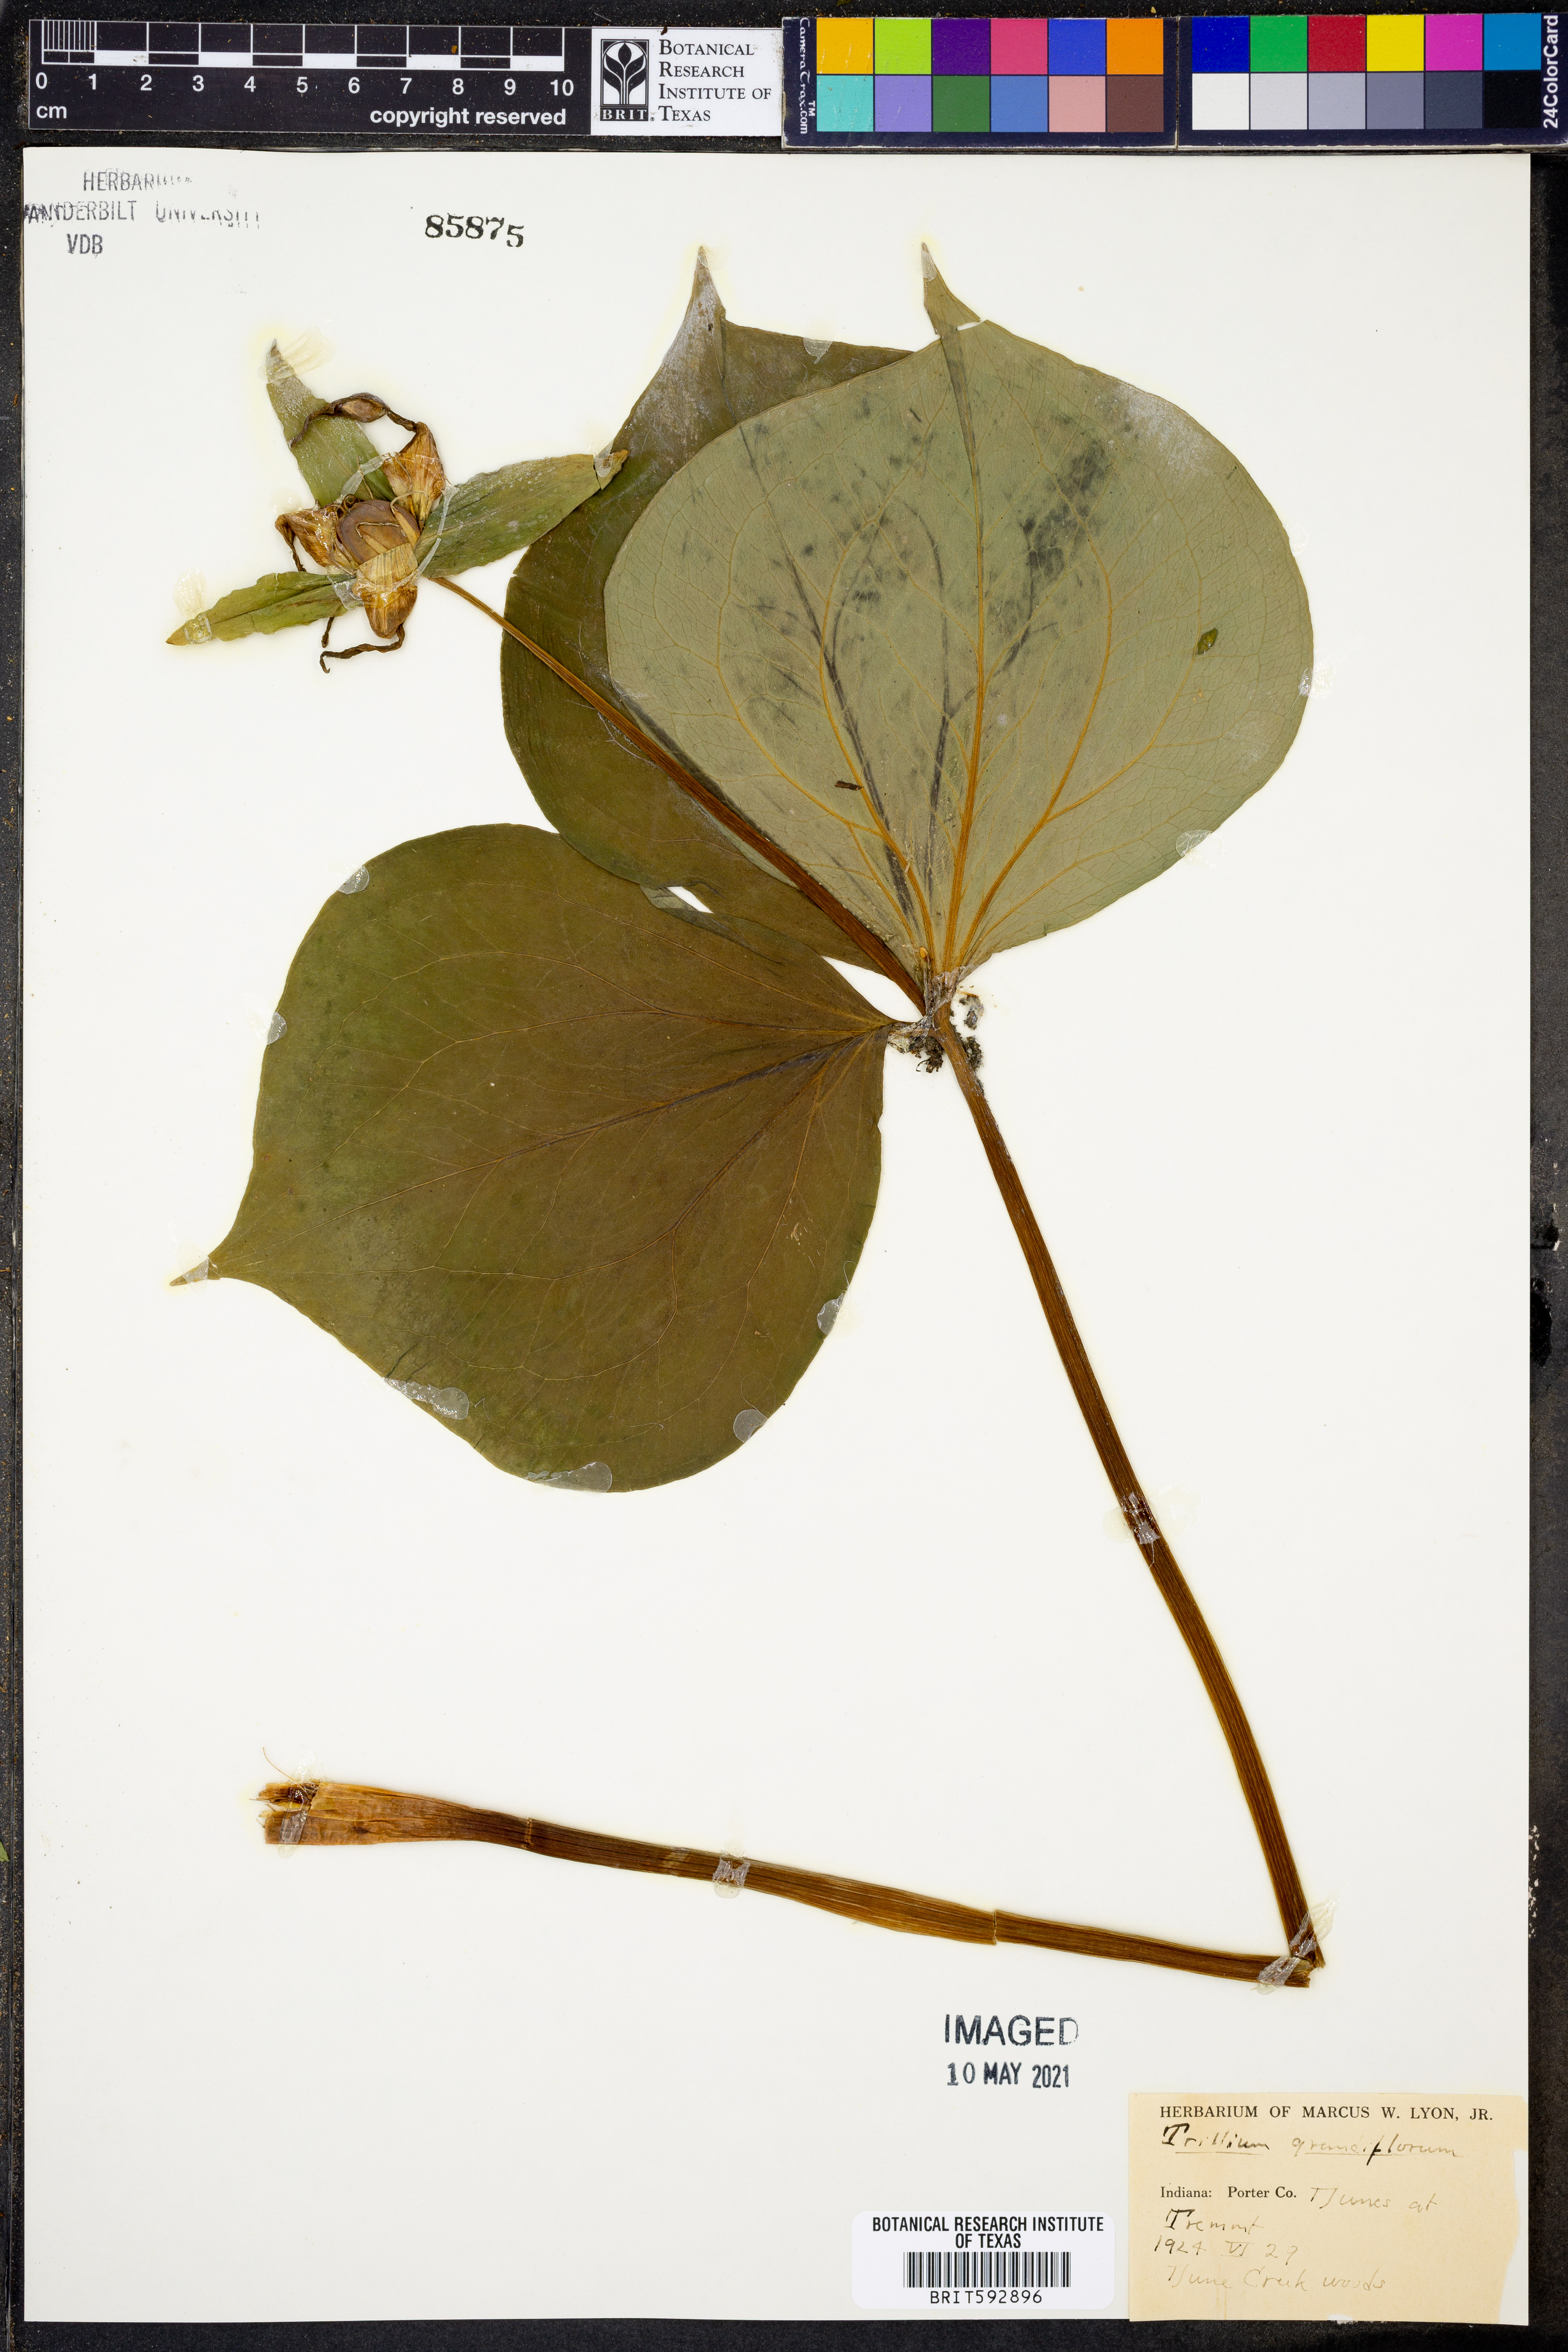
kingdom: Plantae
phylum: Tracheophyta
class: Liliopsida
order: Liliales
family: Melanthiaceae
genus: Trillium
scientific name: Trillium grandiflorum
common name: Great white trillium
